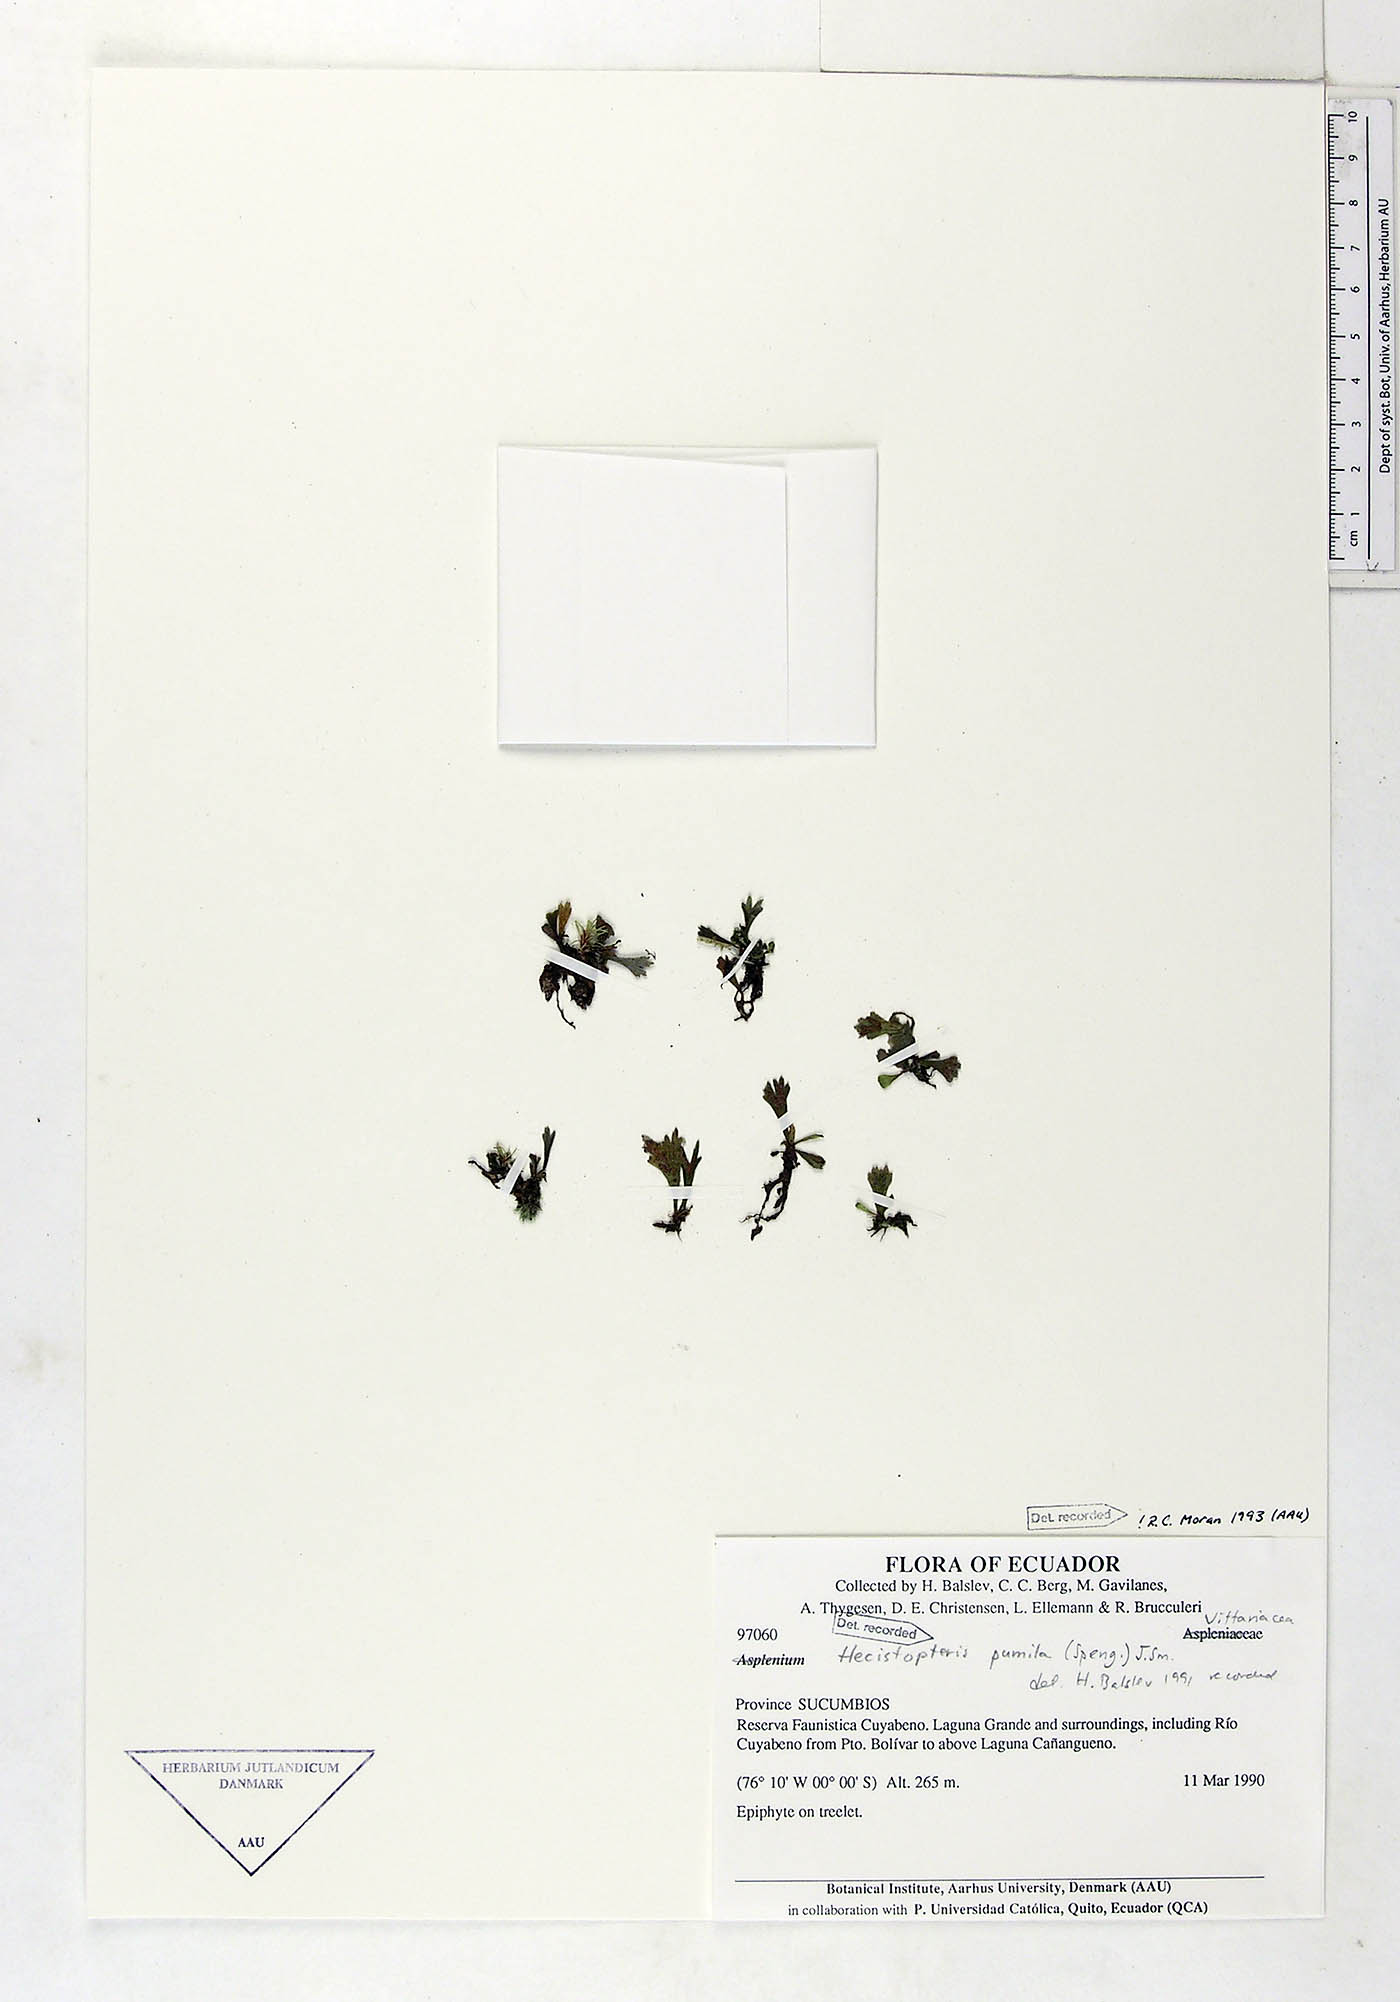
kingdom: Plantae
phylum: Tracheophyta
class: Polypodiopsida
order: Polypodiales
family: Pteridaceae
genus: Hecistopteris
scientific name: Hecistopteris pumila
